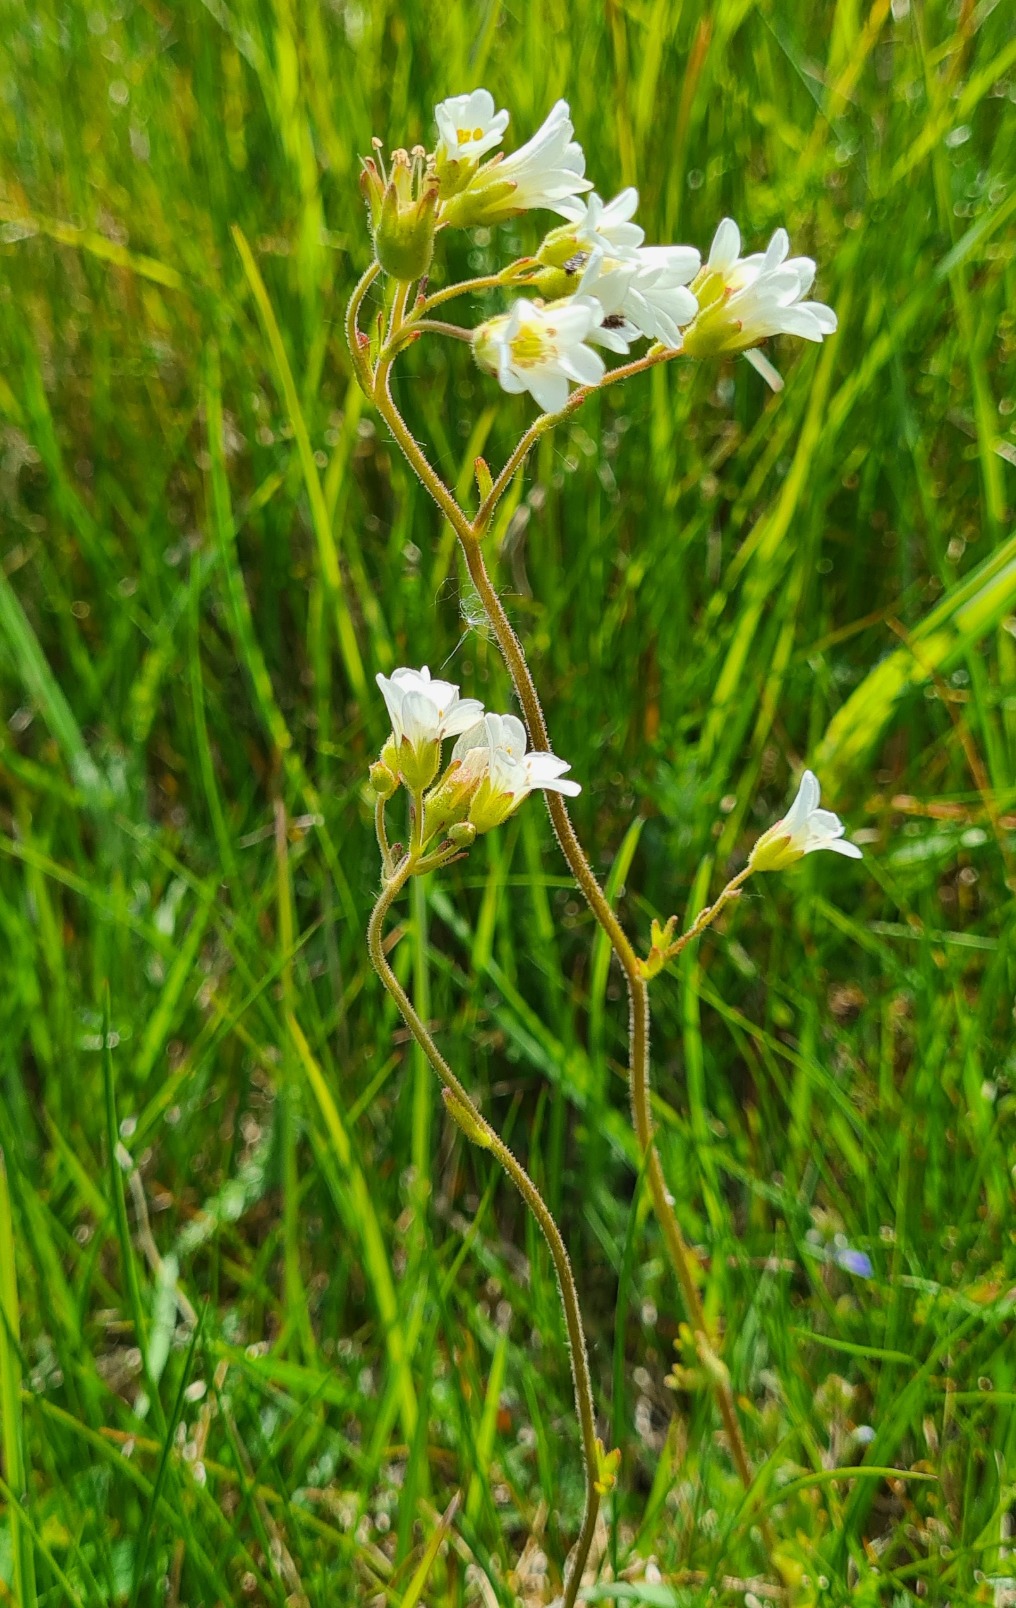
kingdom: Plantae
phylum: Tracheophyta
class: Magnoliopsida
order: Saxifragales
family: Saxifragaceae
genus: Saxifraga
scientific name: Saxifraga granulata
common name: Kornet stenbræk
